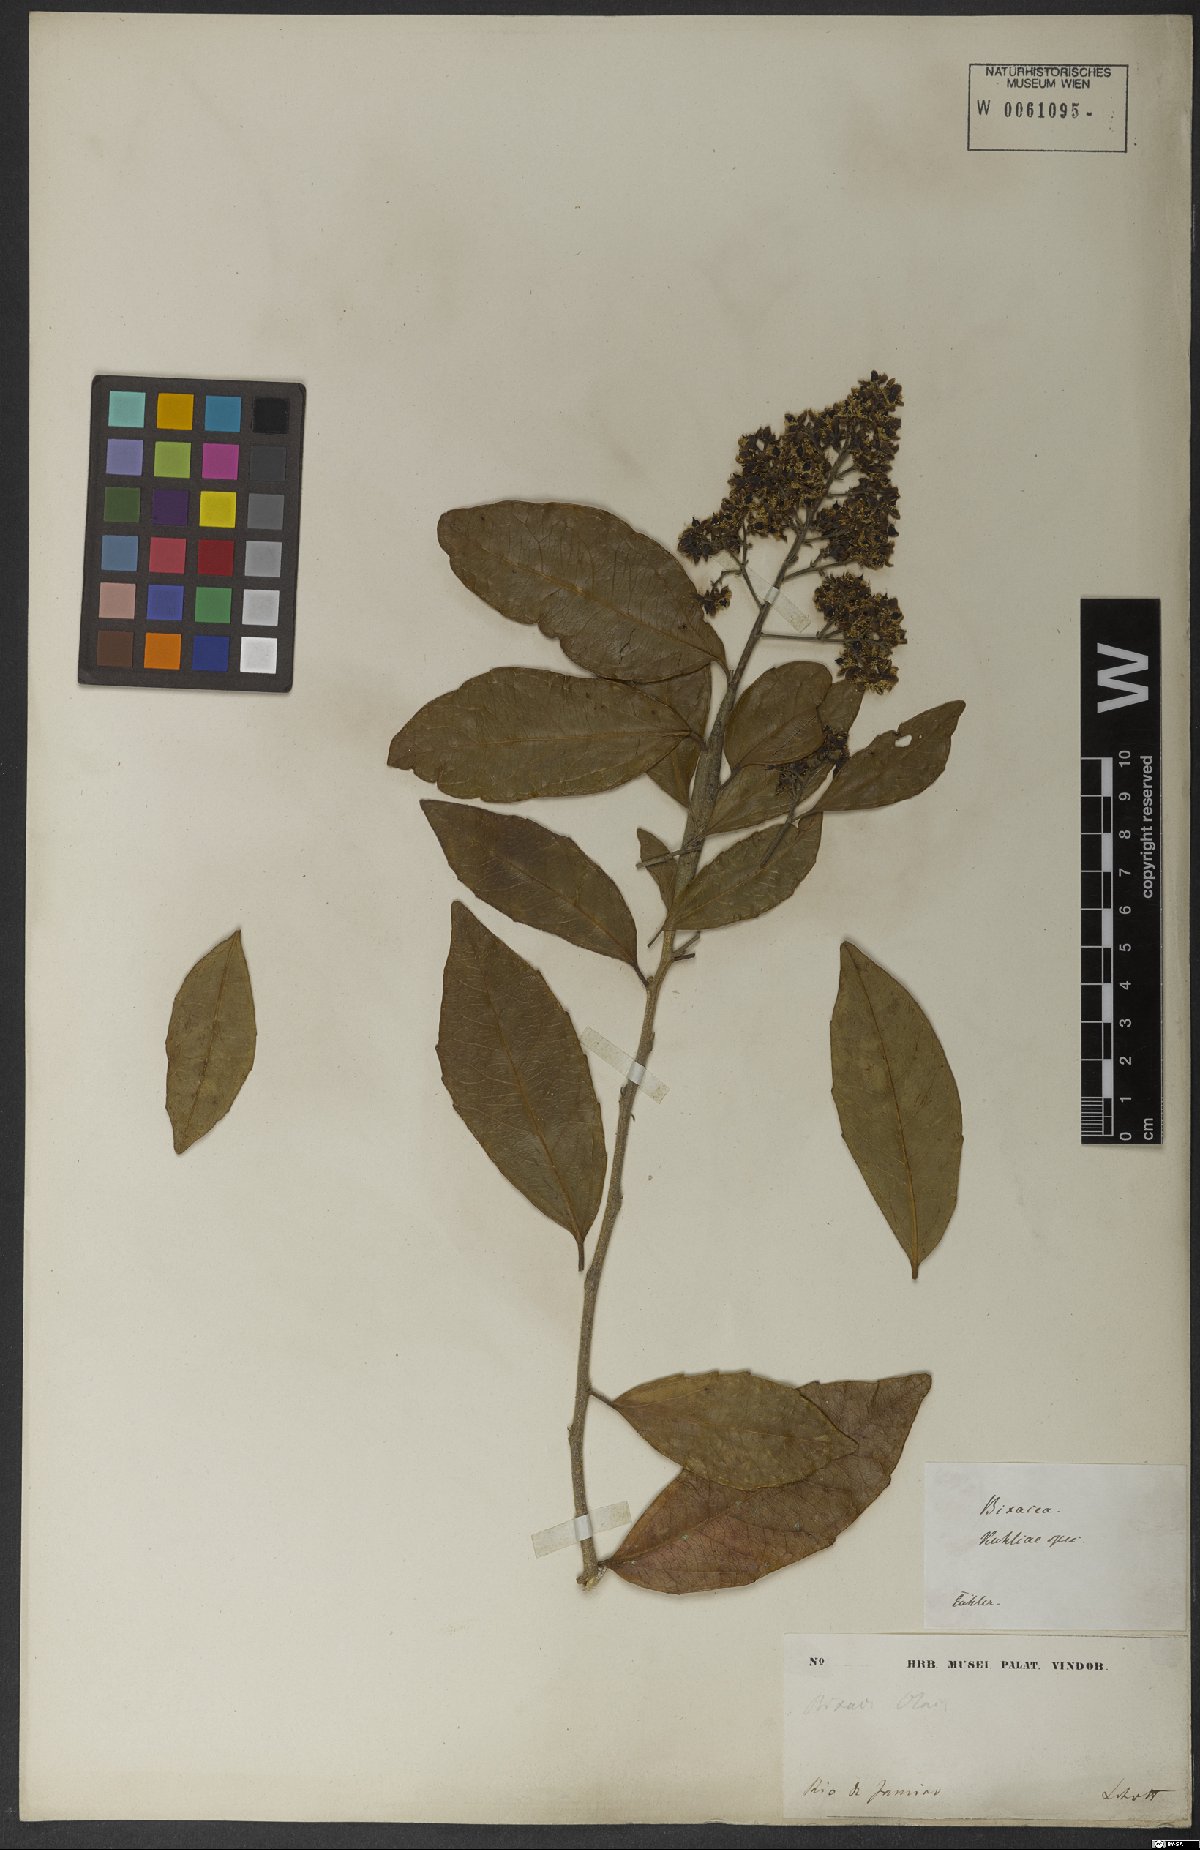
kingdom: Plantae
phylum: Tracheophyta
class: Magnoliopsida
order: Malpighiales
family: Salicaceae
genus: Banara
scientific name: Banara brasiliensis
